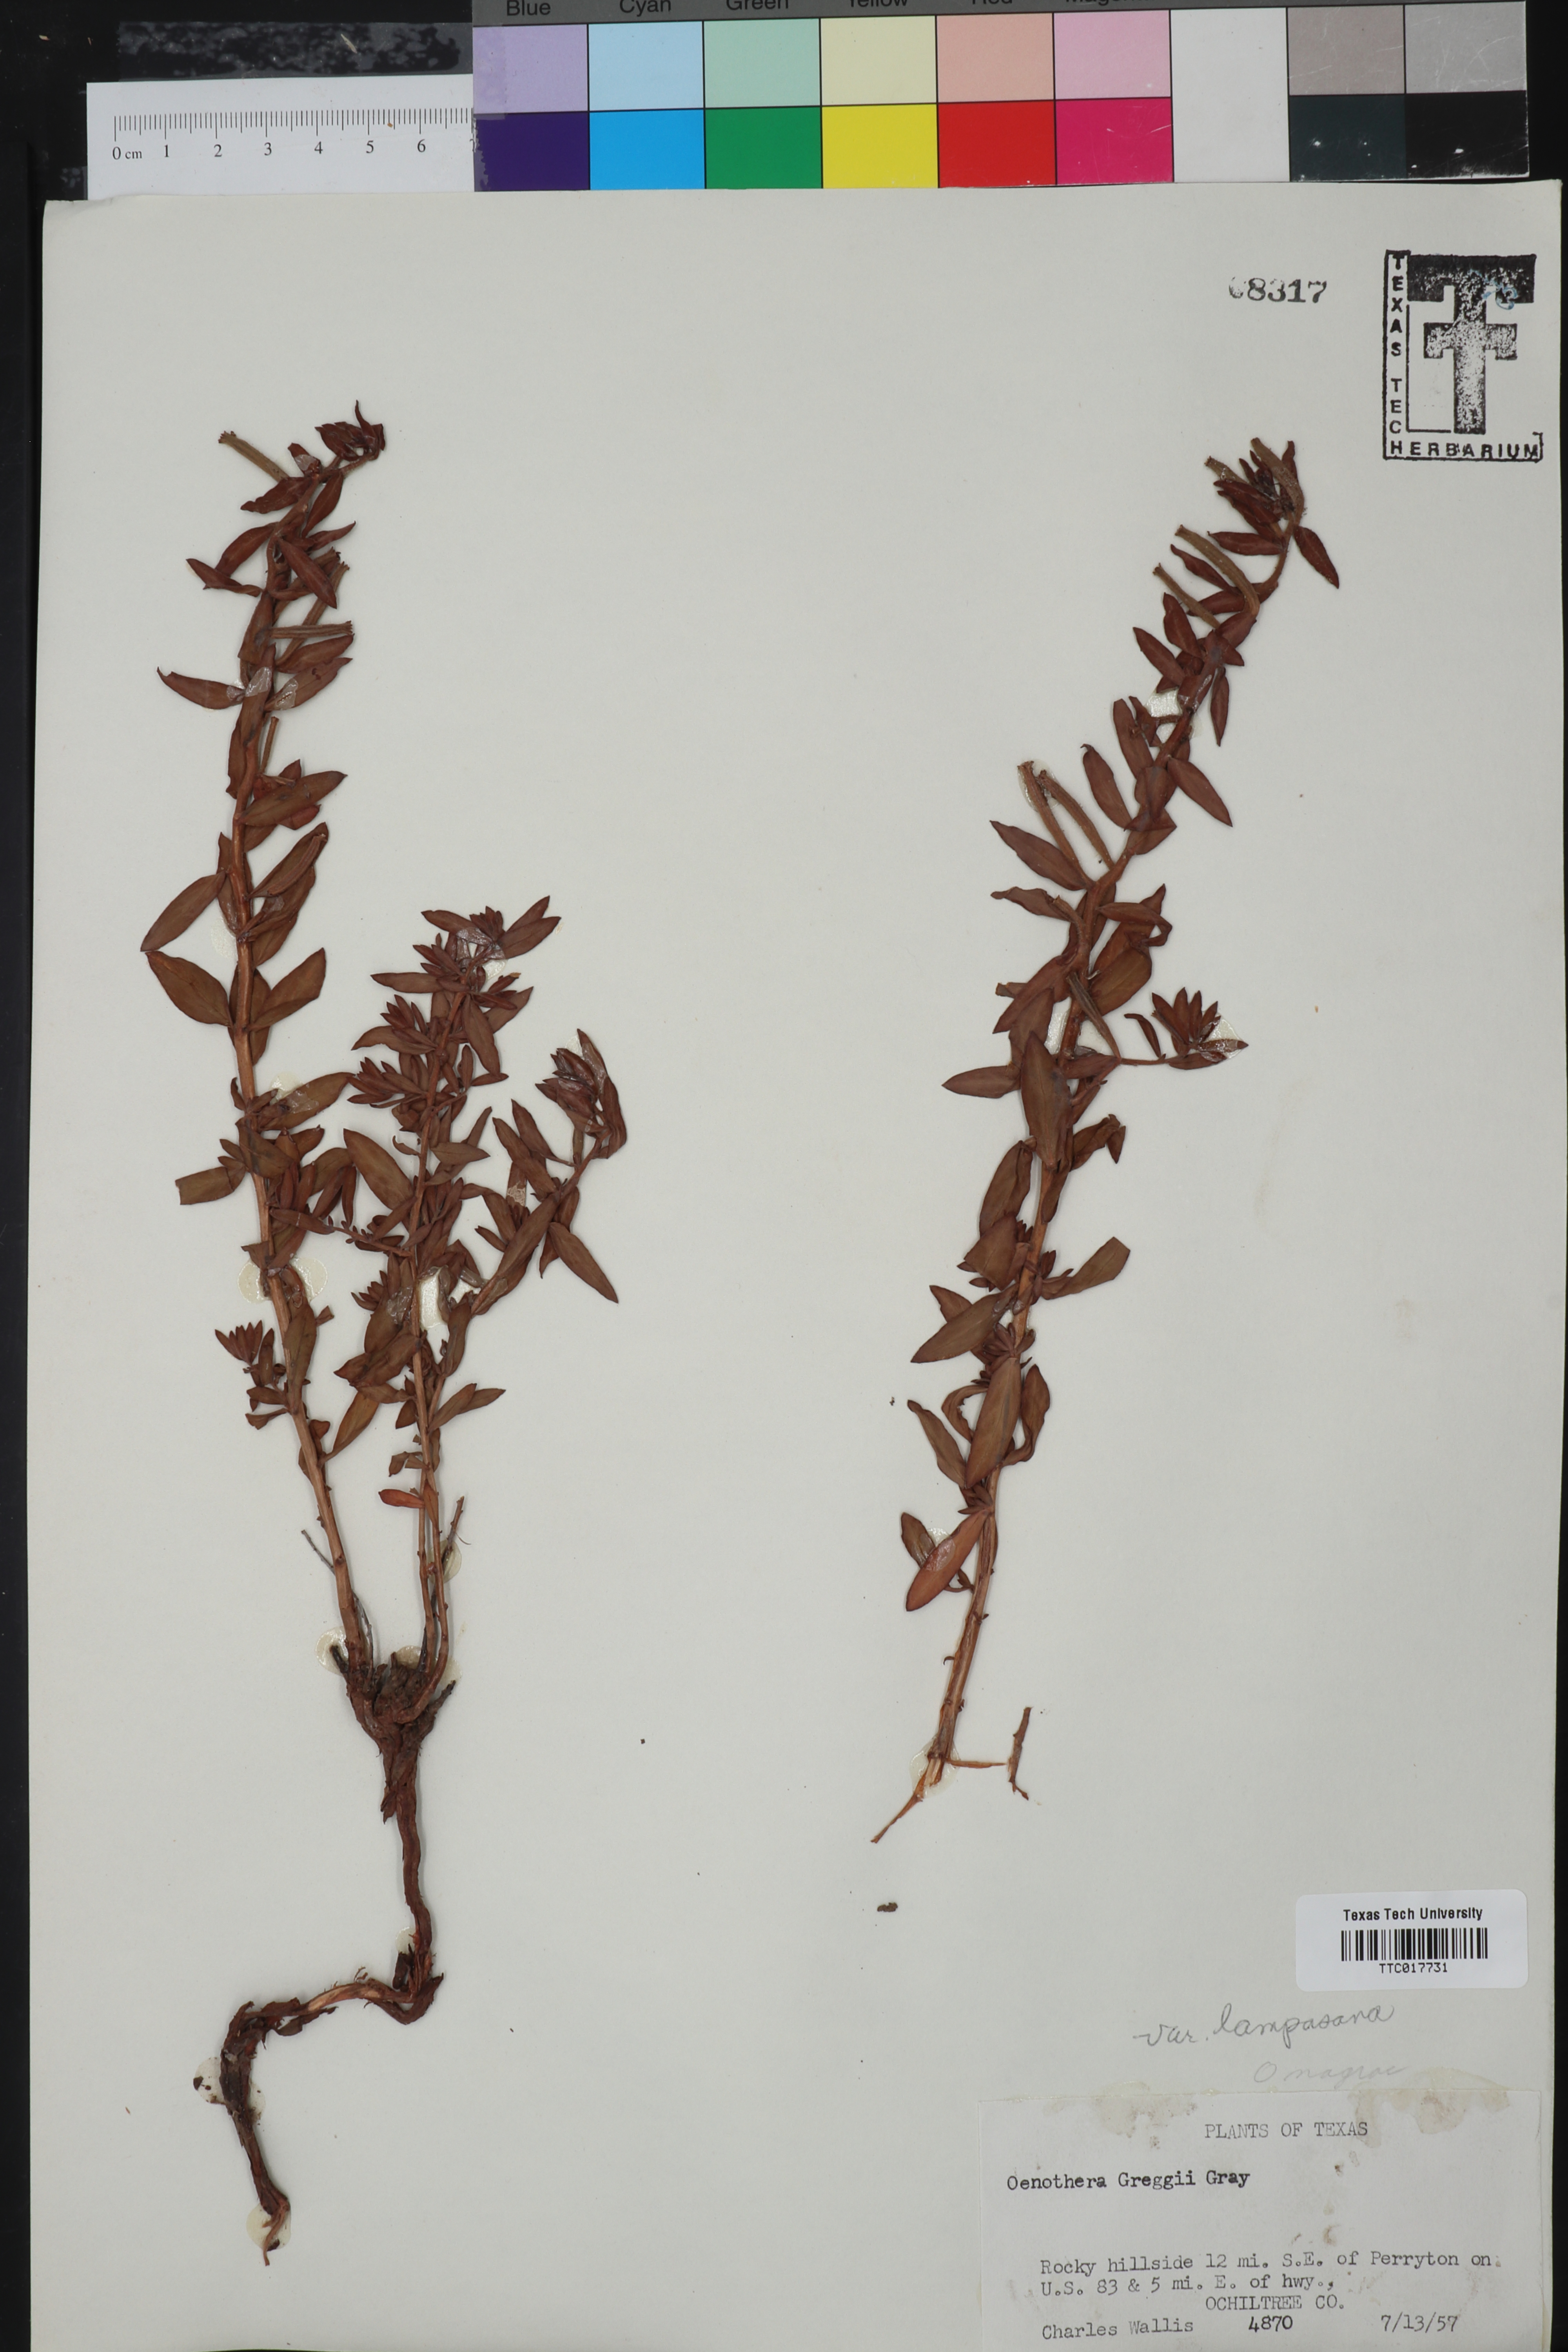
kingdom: Plantae
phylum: Tracheophyta
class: Magnoliopsida
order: Myrtales
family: Onagraceae
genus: Oenothera
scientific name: Oenothera hartwegii
